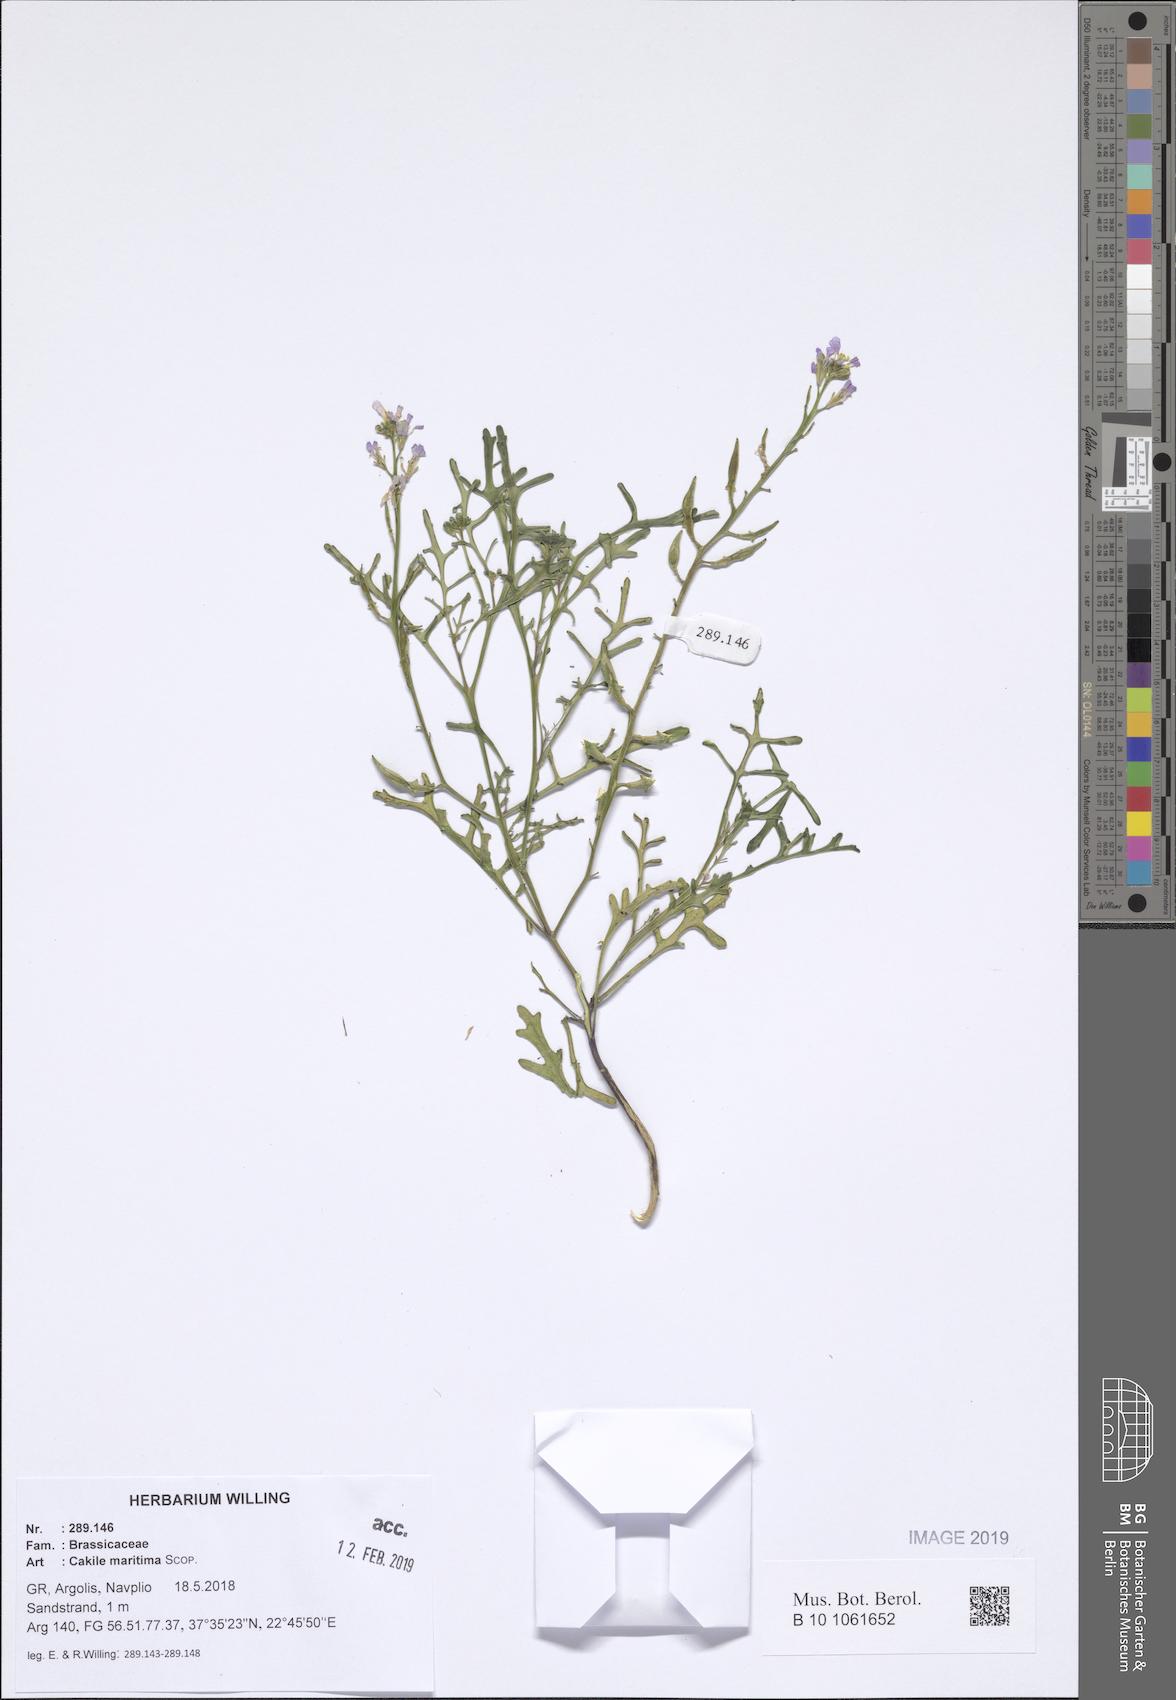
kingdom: Plantae
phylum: Tracheophyta
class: Magnoliopsida
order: Brassicales
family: Brassicaceae
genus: Cakile
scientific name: Cakile maritima
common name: Sea rocket
